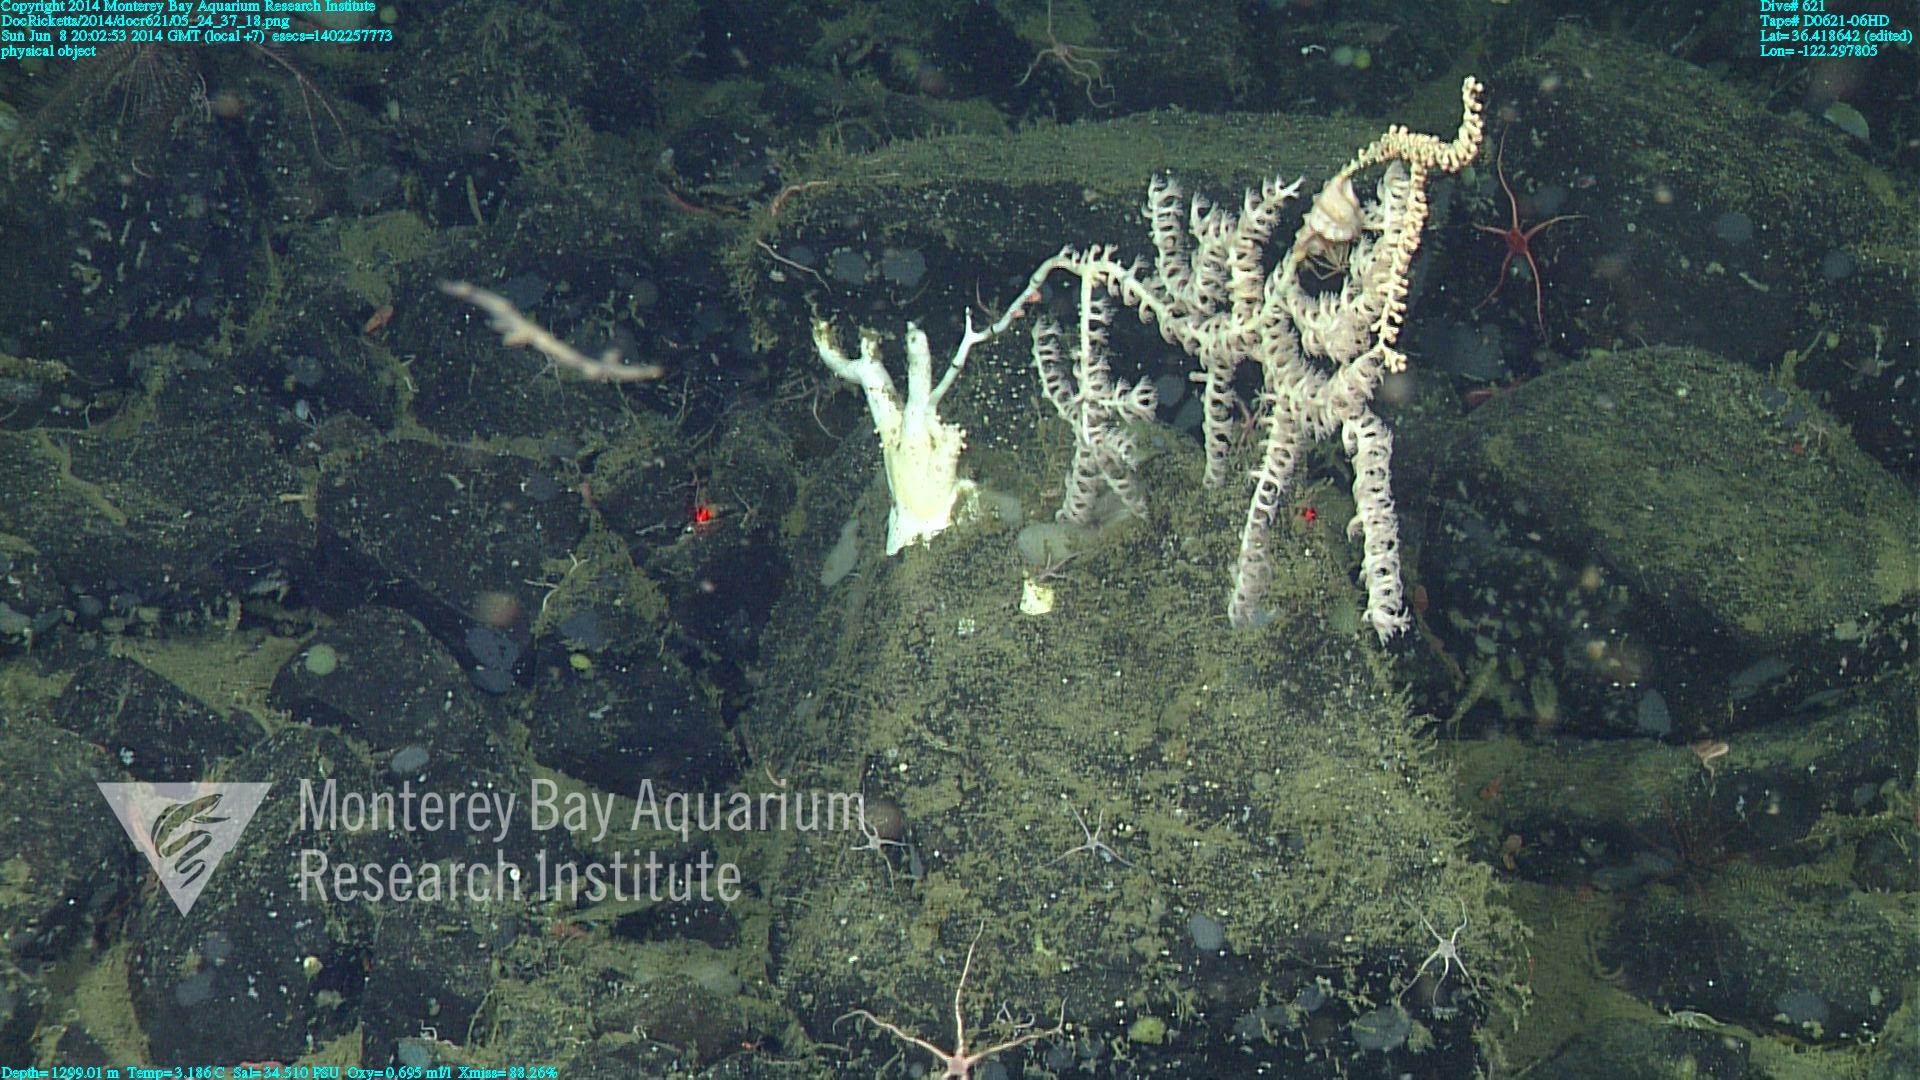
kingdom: Animalia
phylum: Cnidaria
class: Anthozoa
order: Scleralcyonacea
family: Keratoisididae
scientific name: Keratoisididae
